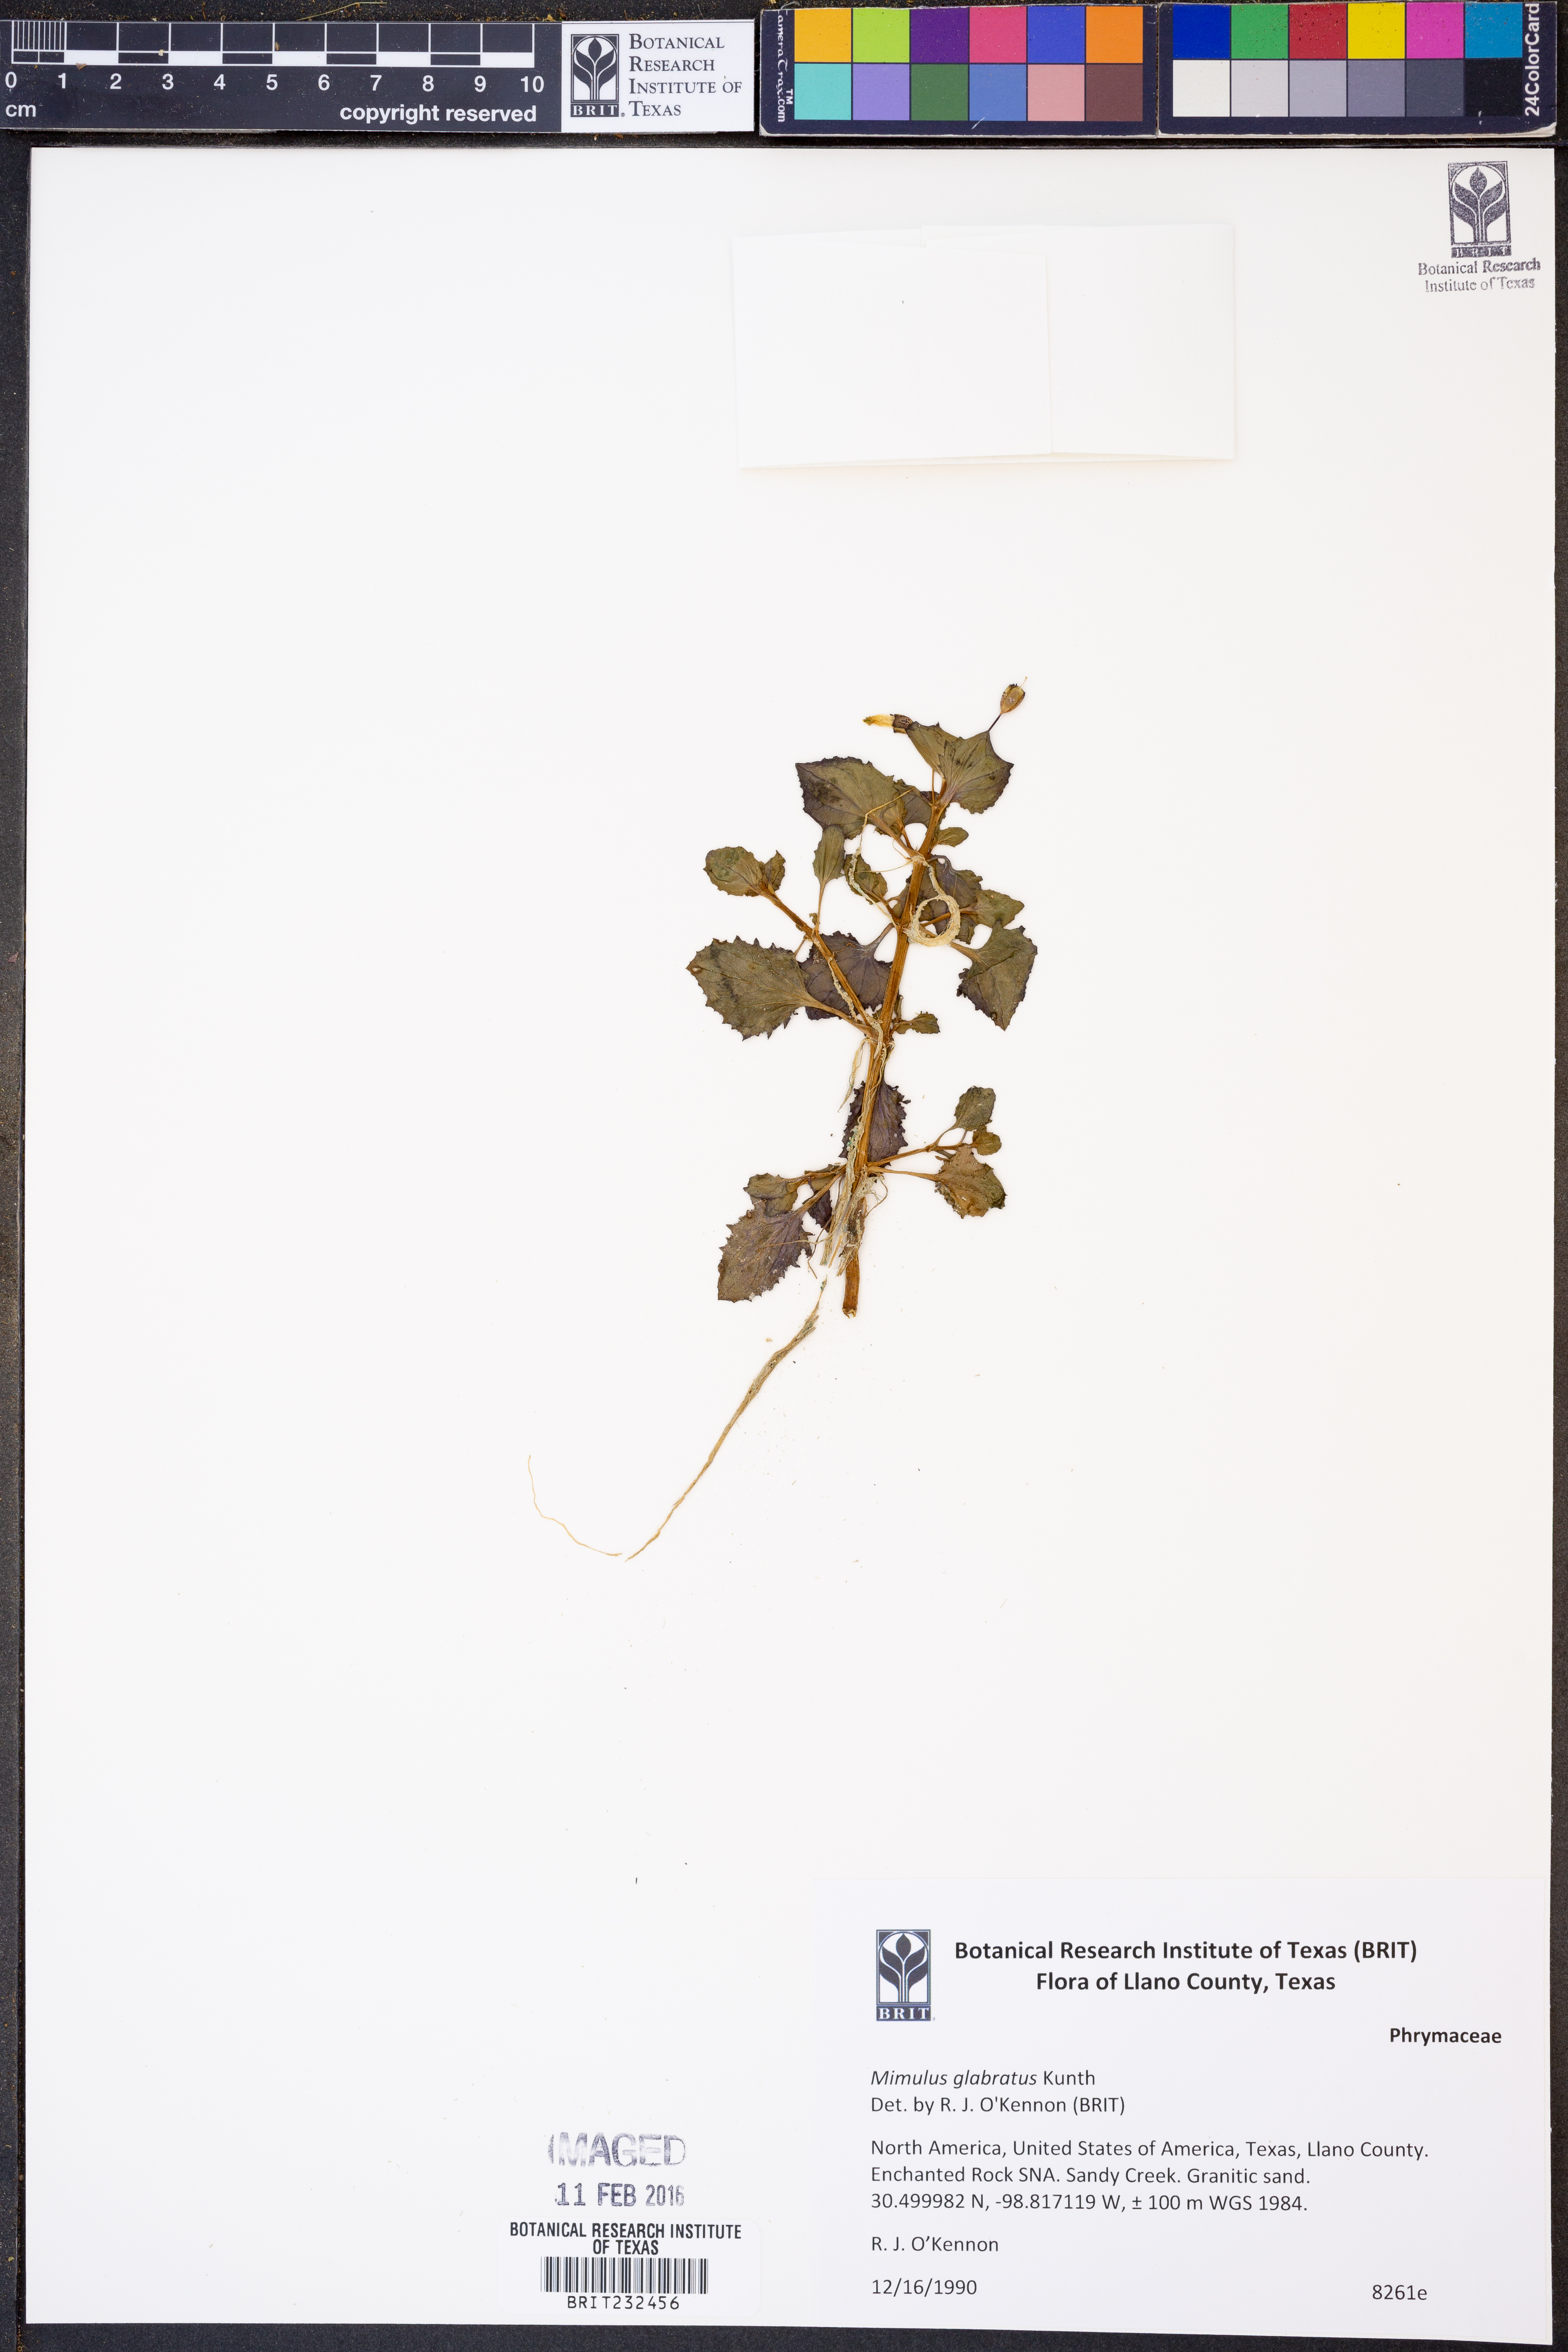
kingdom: Plantae
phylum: Tracheophyta
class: Magnoliopsida
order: Lamiales
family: Phrymaceae
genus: Erythranthe
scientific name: Erythranthe glabrata
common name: Round-leaved monkeyflower
